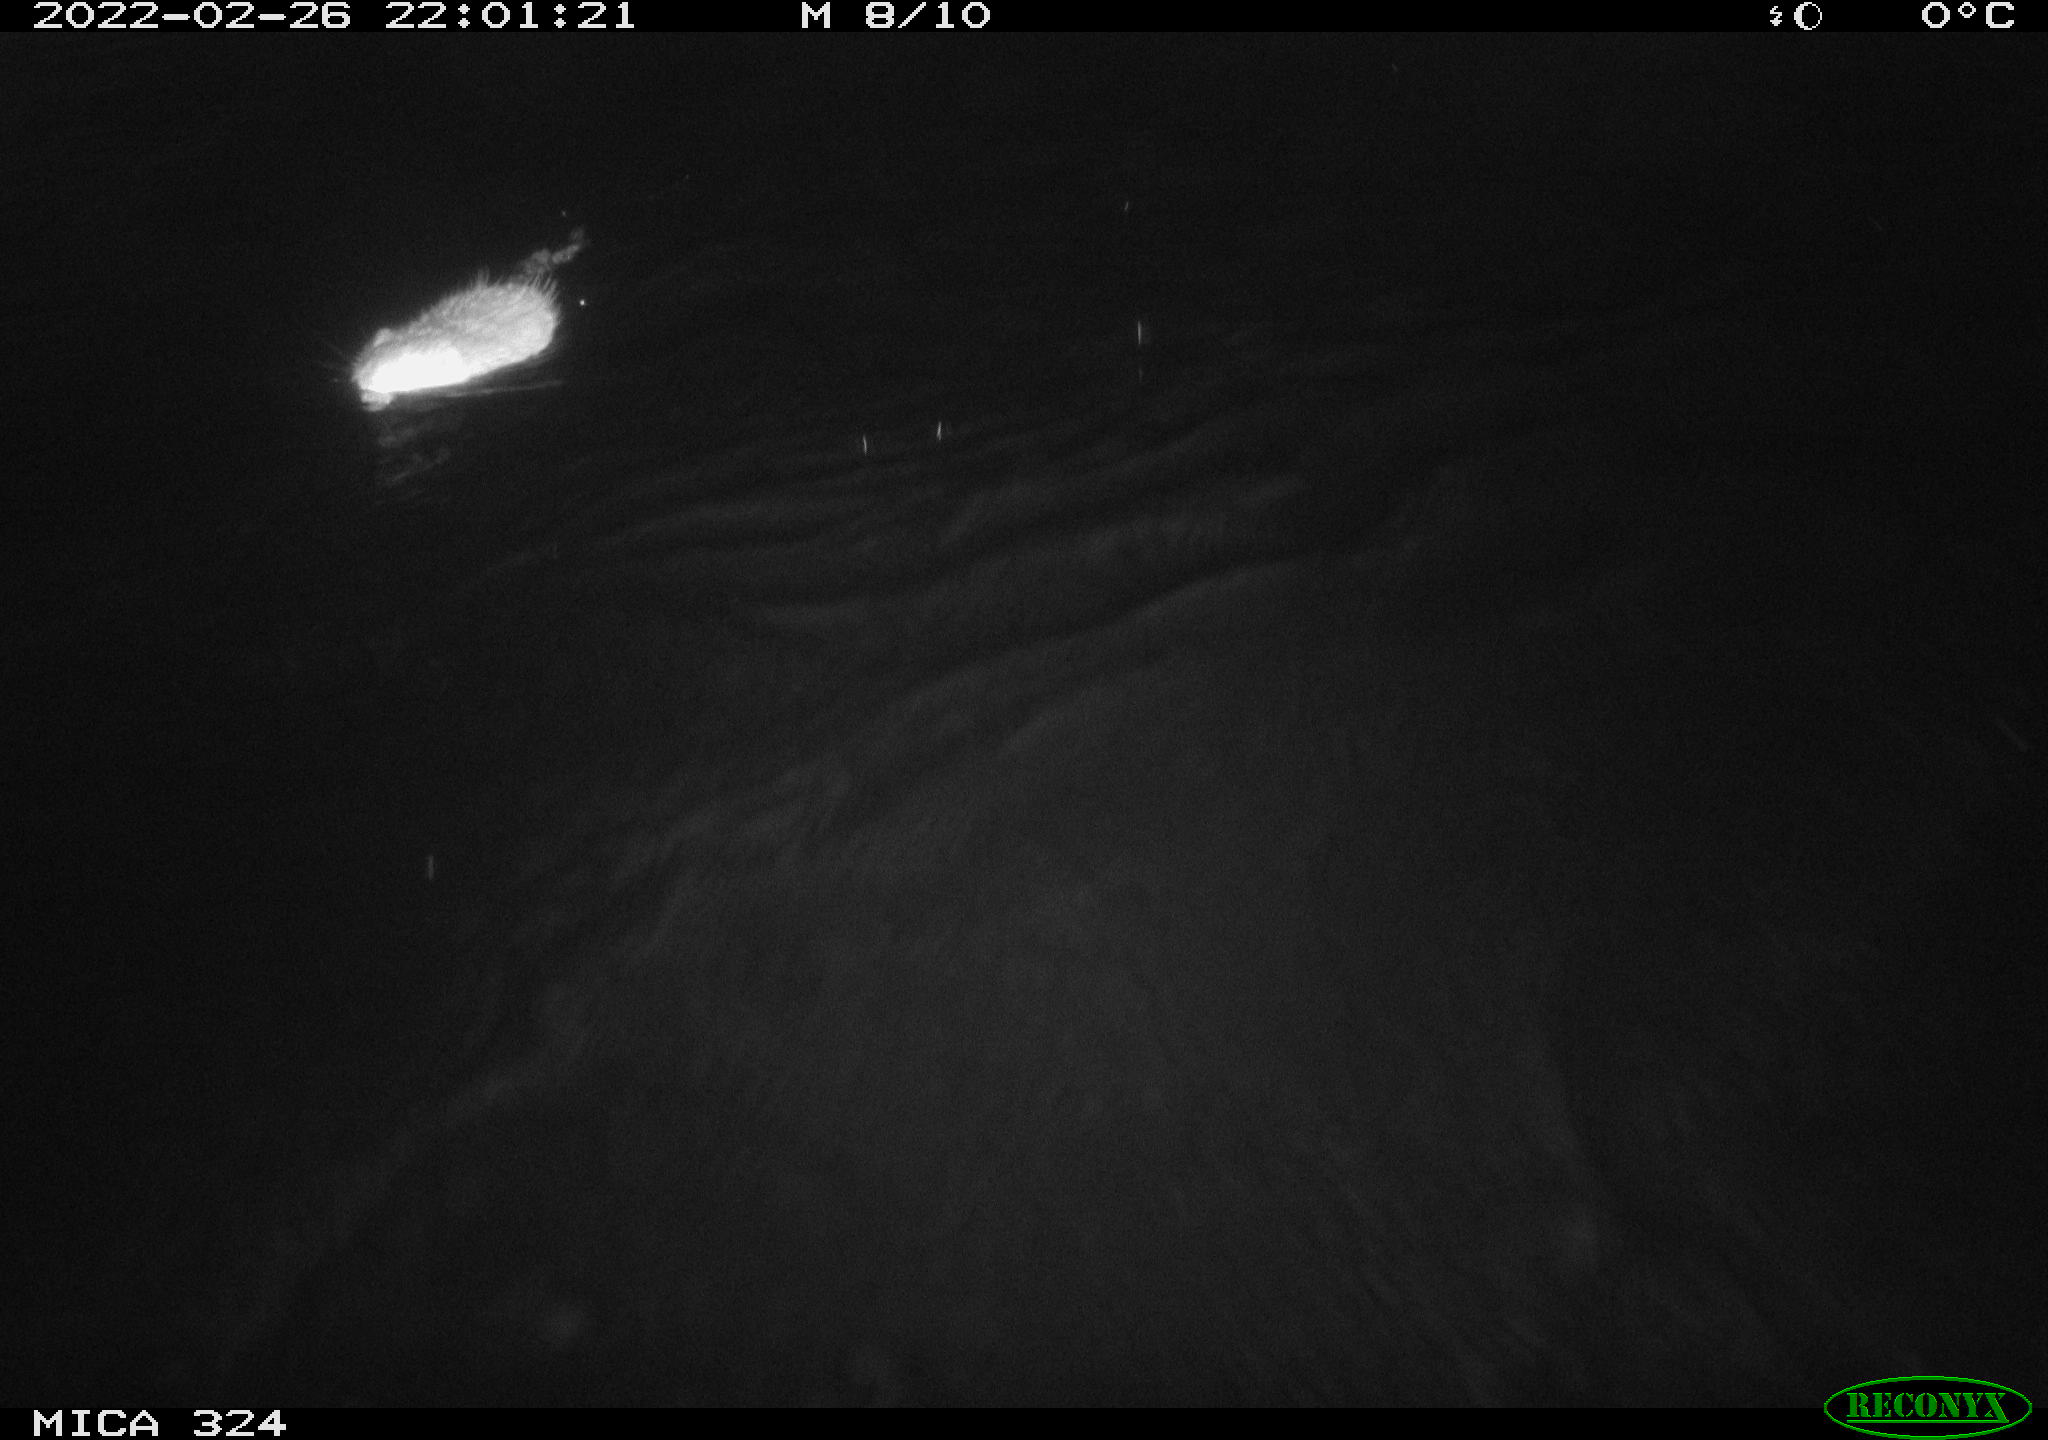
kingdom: Animalia
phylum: Chordata
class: Mammalia
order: Rodentia
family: Cricetidae
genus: Ondatra
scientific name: Ondatra zibethicus
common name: Muskrat
